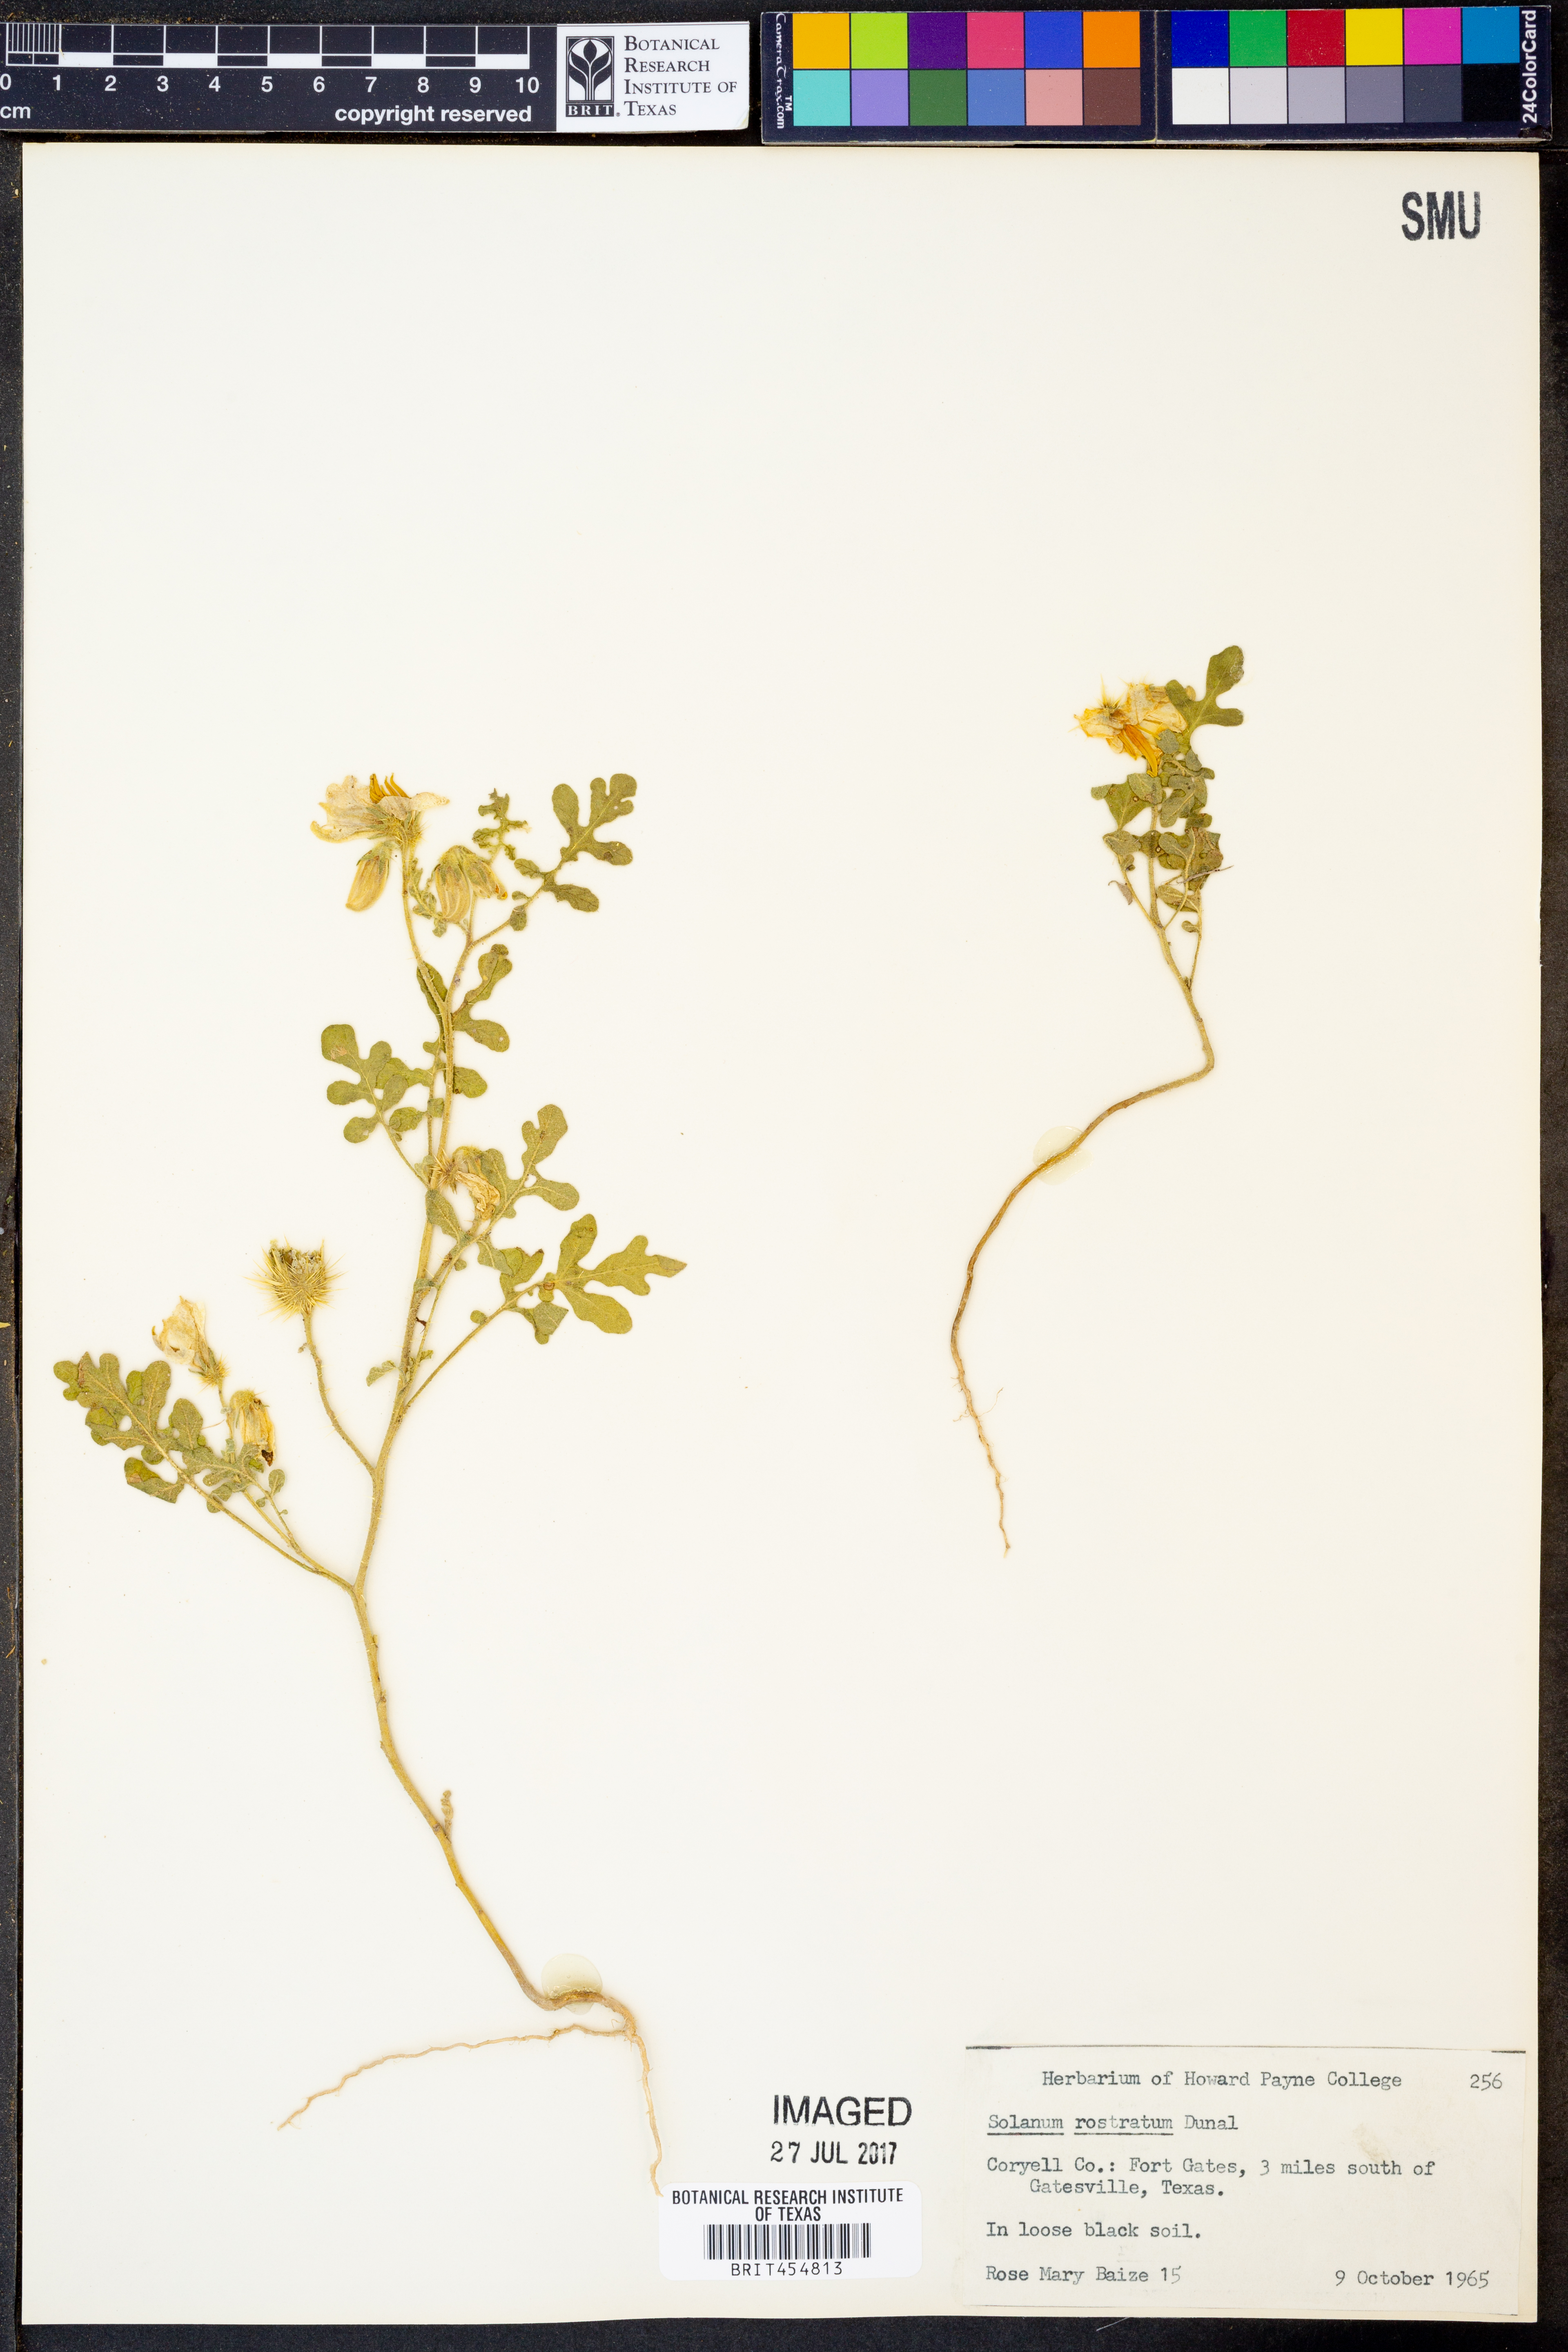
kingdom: Plantae
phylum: Tracheophyta
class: Magnoliopsida
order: Solanales
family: Solanaceae
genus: Solanum
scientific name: Solanum angustifolium
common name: Buffalobur nightshade
